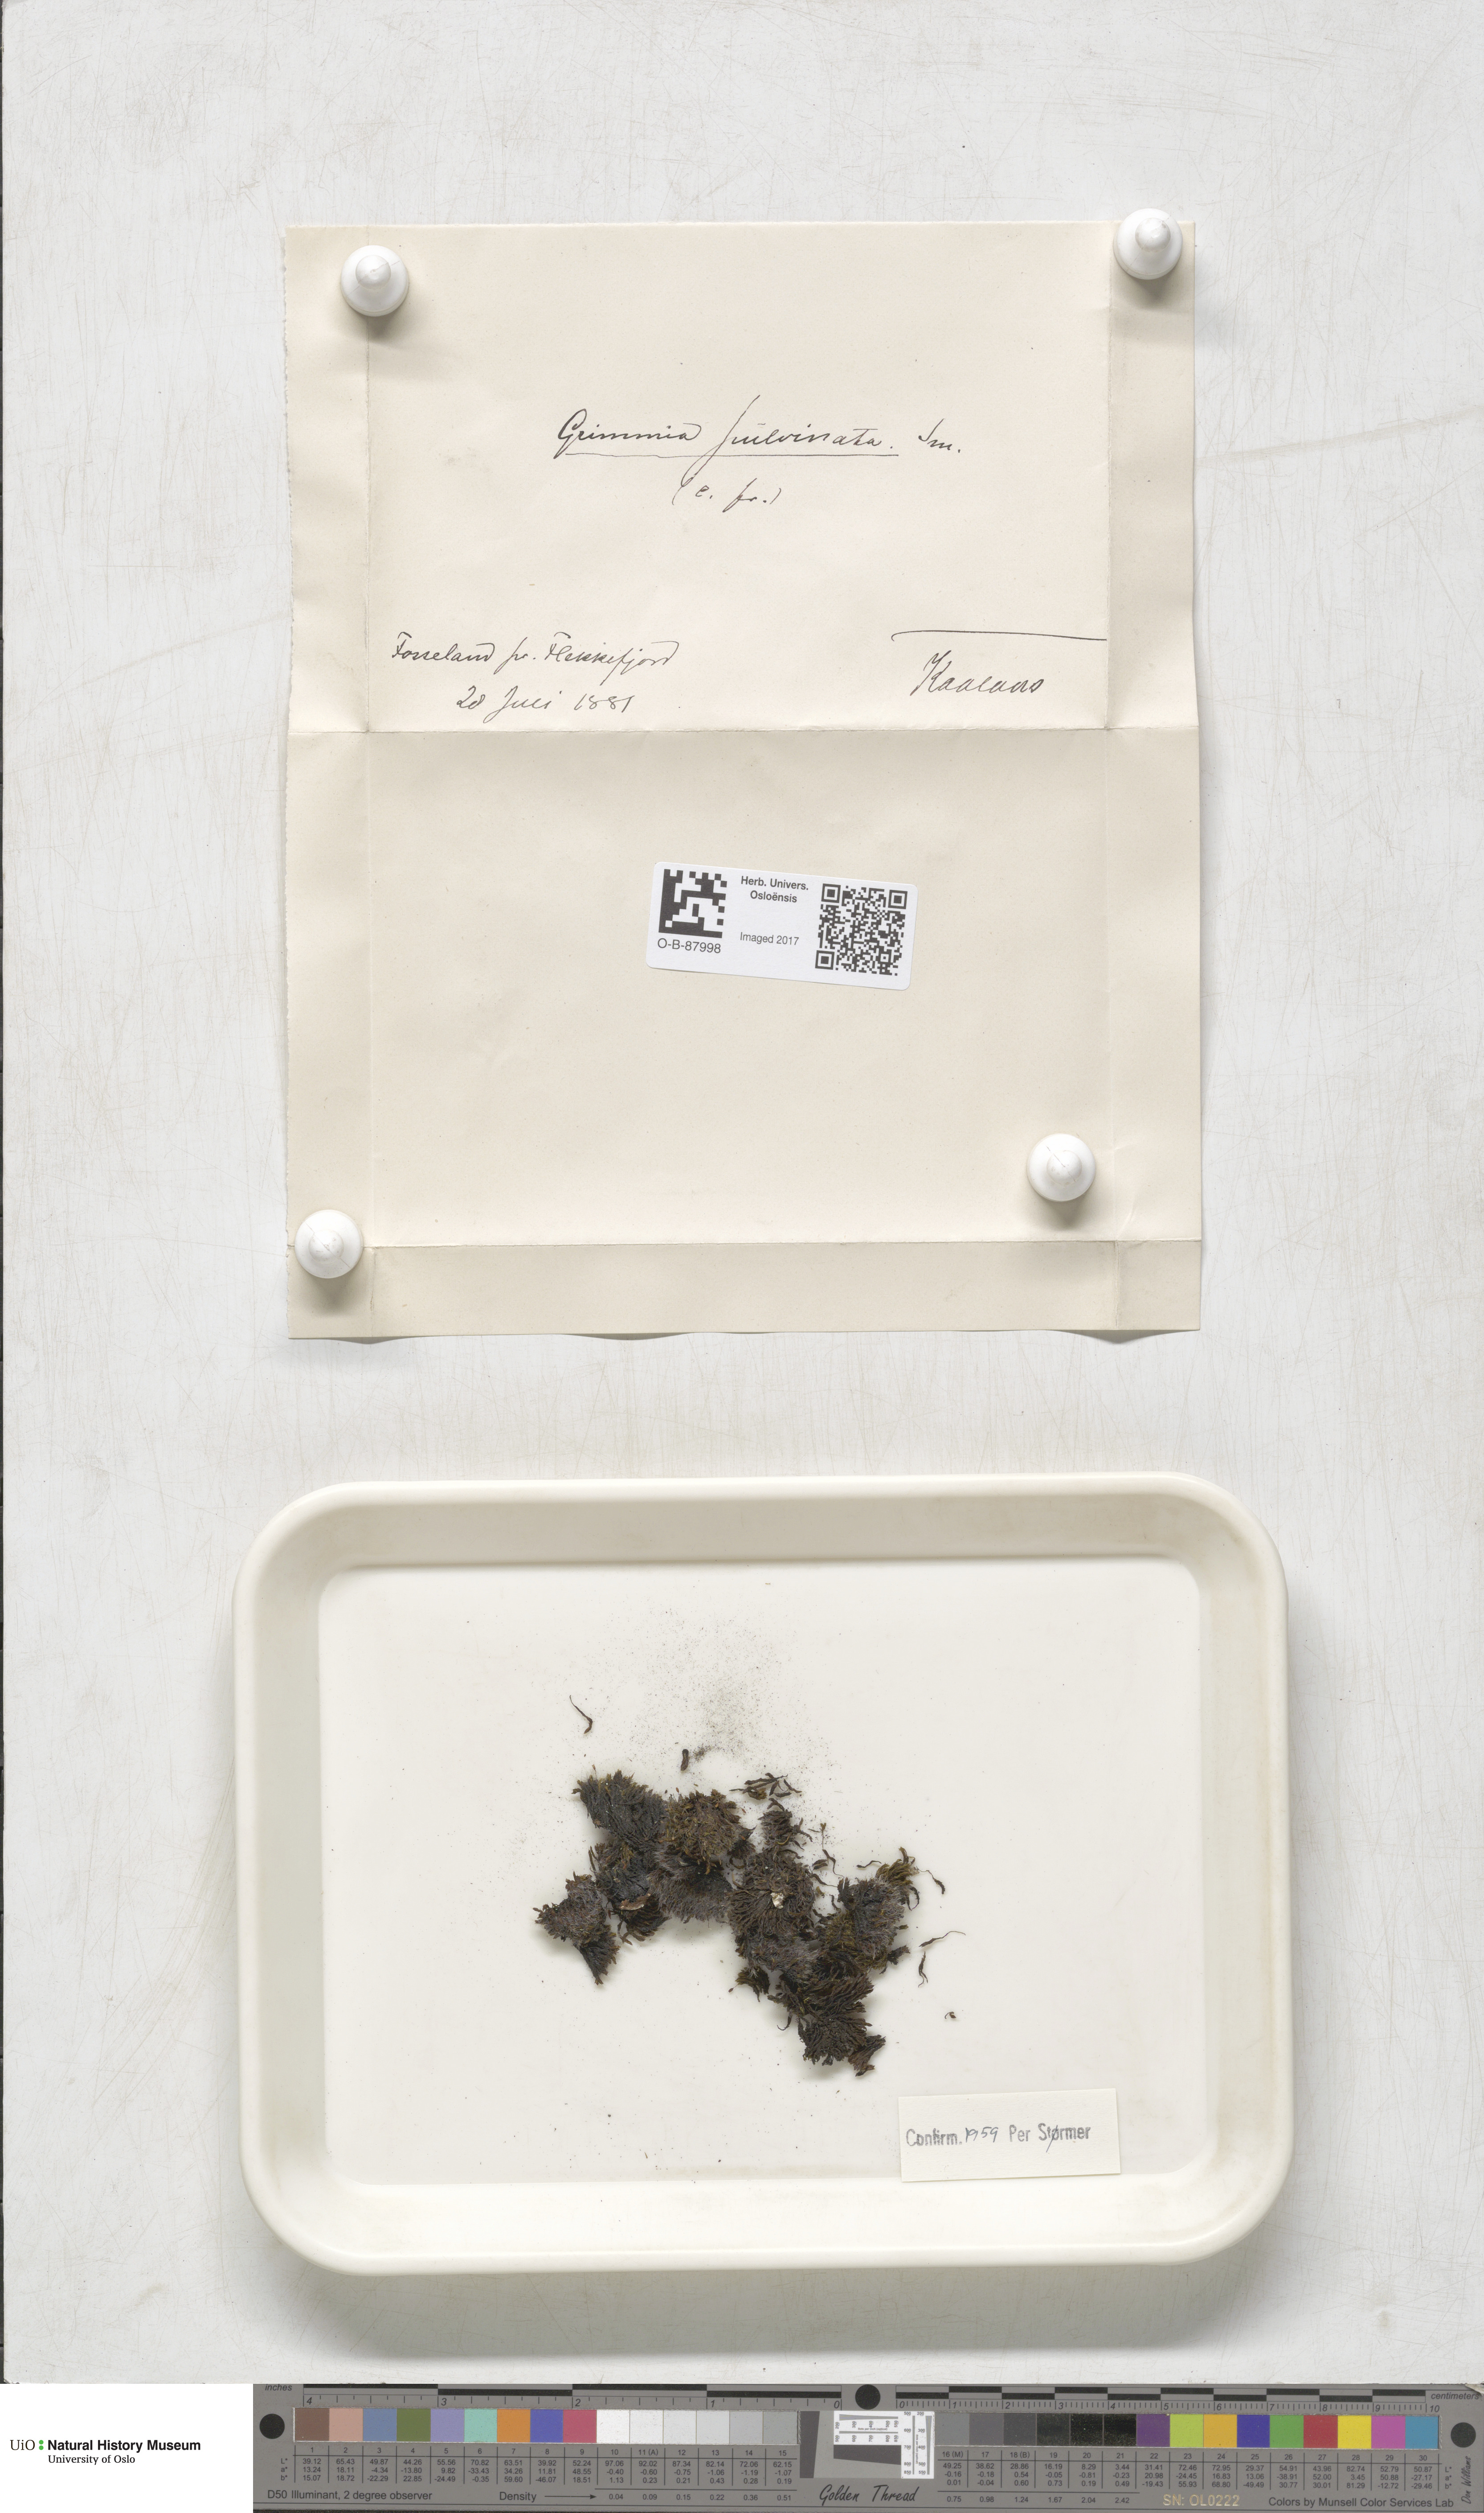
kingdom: Plantae
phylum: Bryophyta
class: Bryopsida
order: Grimmiales
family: Grimmiaceae
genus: Grimmia
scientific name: Grimmia pulvinata
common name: Grey-cushioned grimmia
